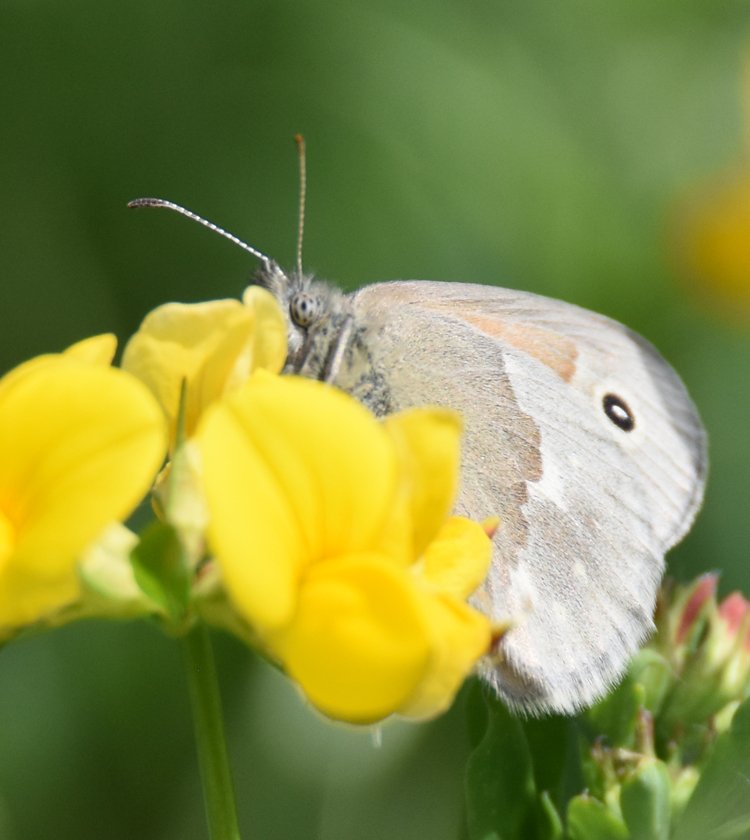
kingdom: Animalia
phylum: Arthropoda
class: Insecta
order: Lepidoptera
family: Nymphalidae
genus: Coenonympha
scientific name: Coenonympha tullia
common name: Large Heath
